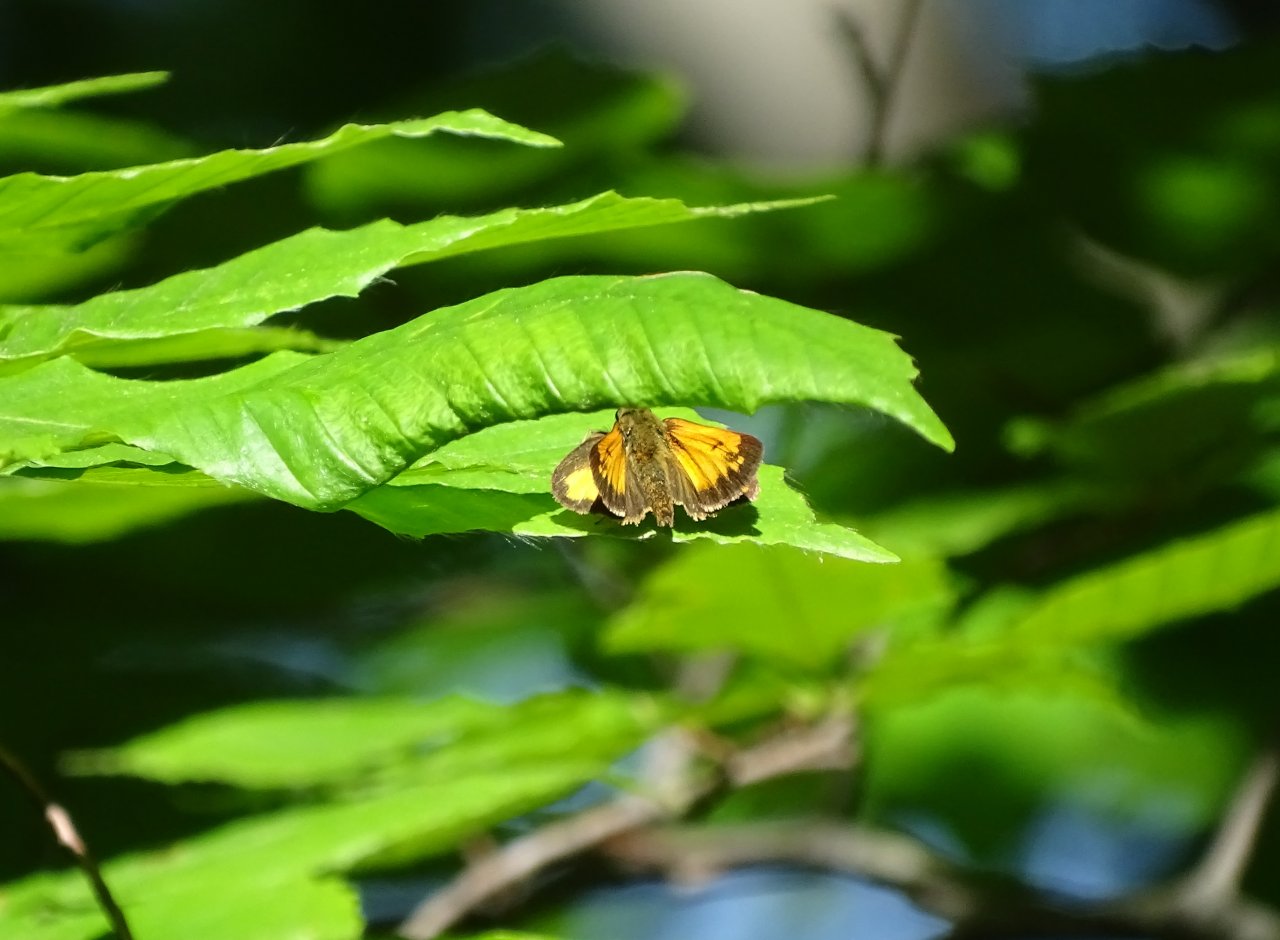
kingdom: Animalia
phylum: Arthropoda
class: Insecta
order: Lepidoptera
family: Hesperiidae
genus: Lon
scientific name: Lon hobomok
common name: Hobomok Skipper
